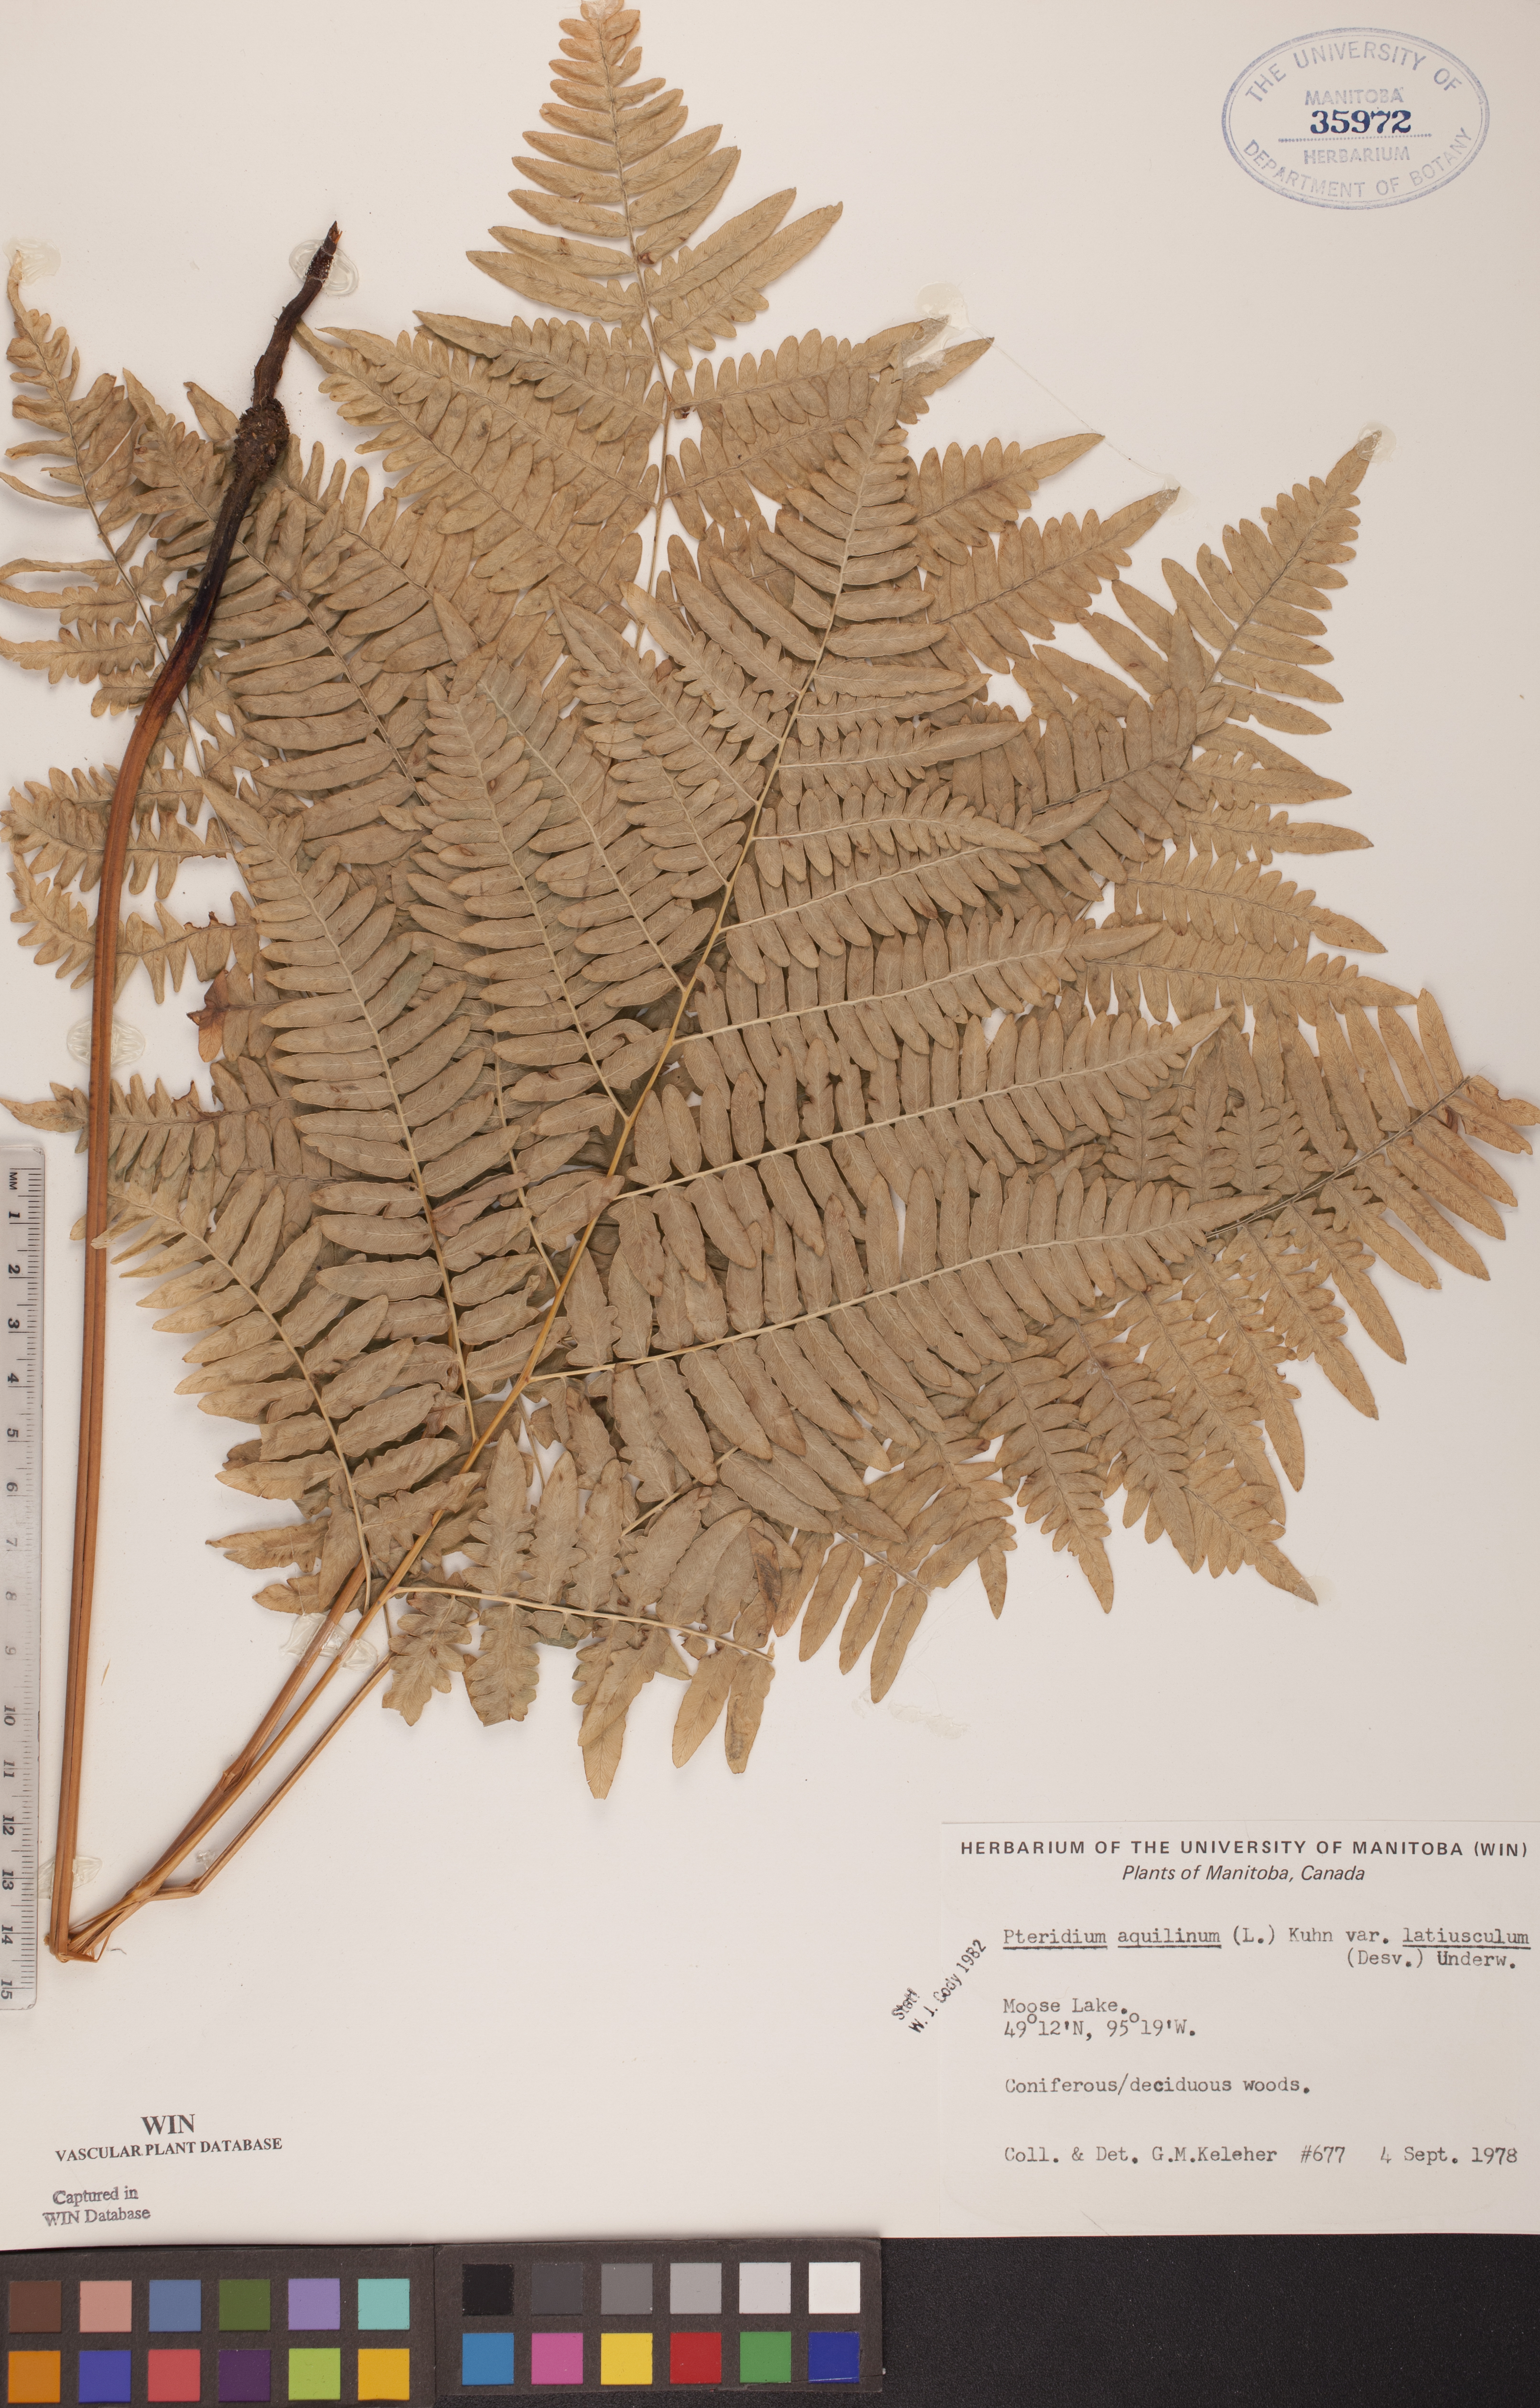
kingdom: Plantae
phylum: Tracheophyta
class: Polypodiopsida
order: Polypodiales
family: Dennstaedtiaceae
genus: Pteridium
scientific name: Pteridium aquilinum
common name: Bracken
